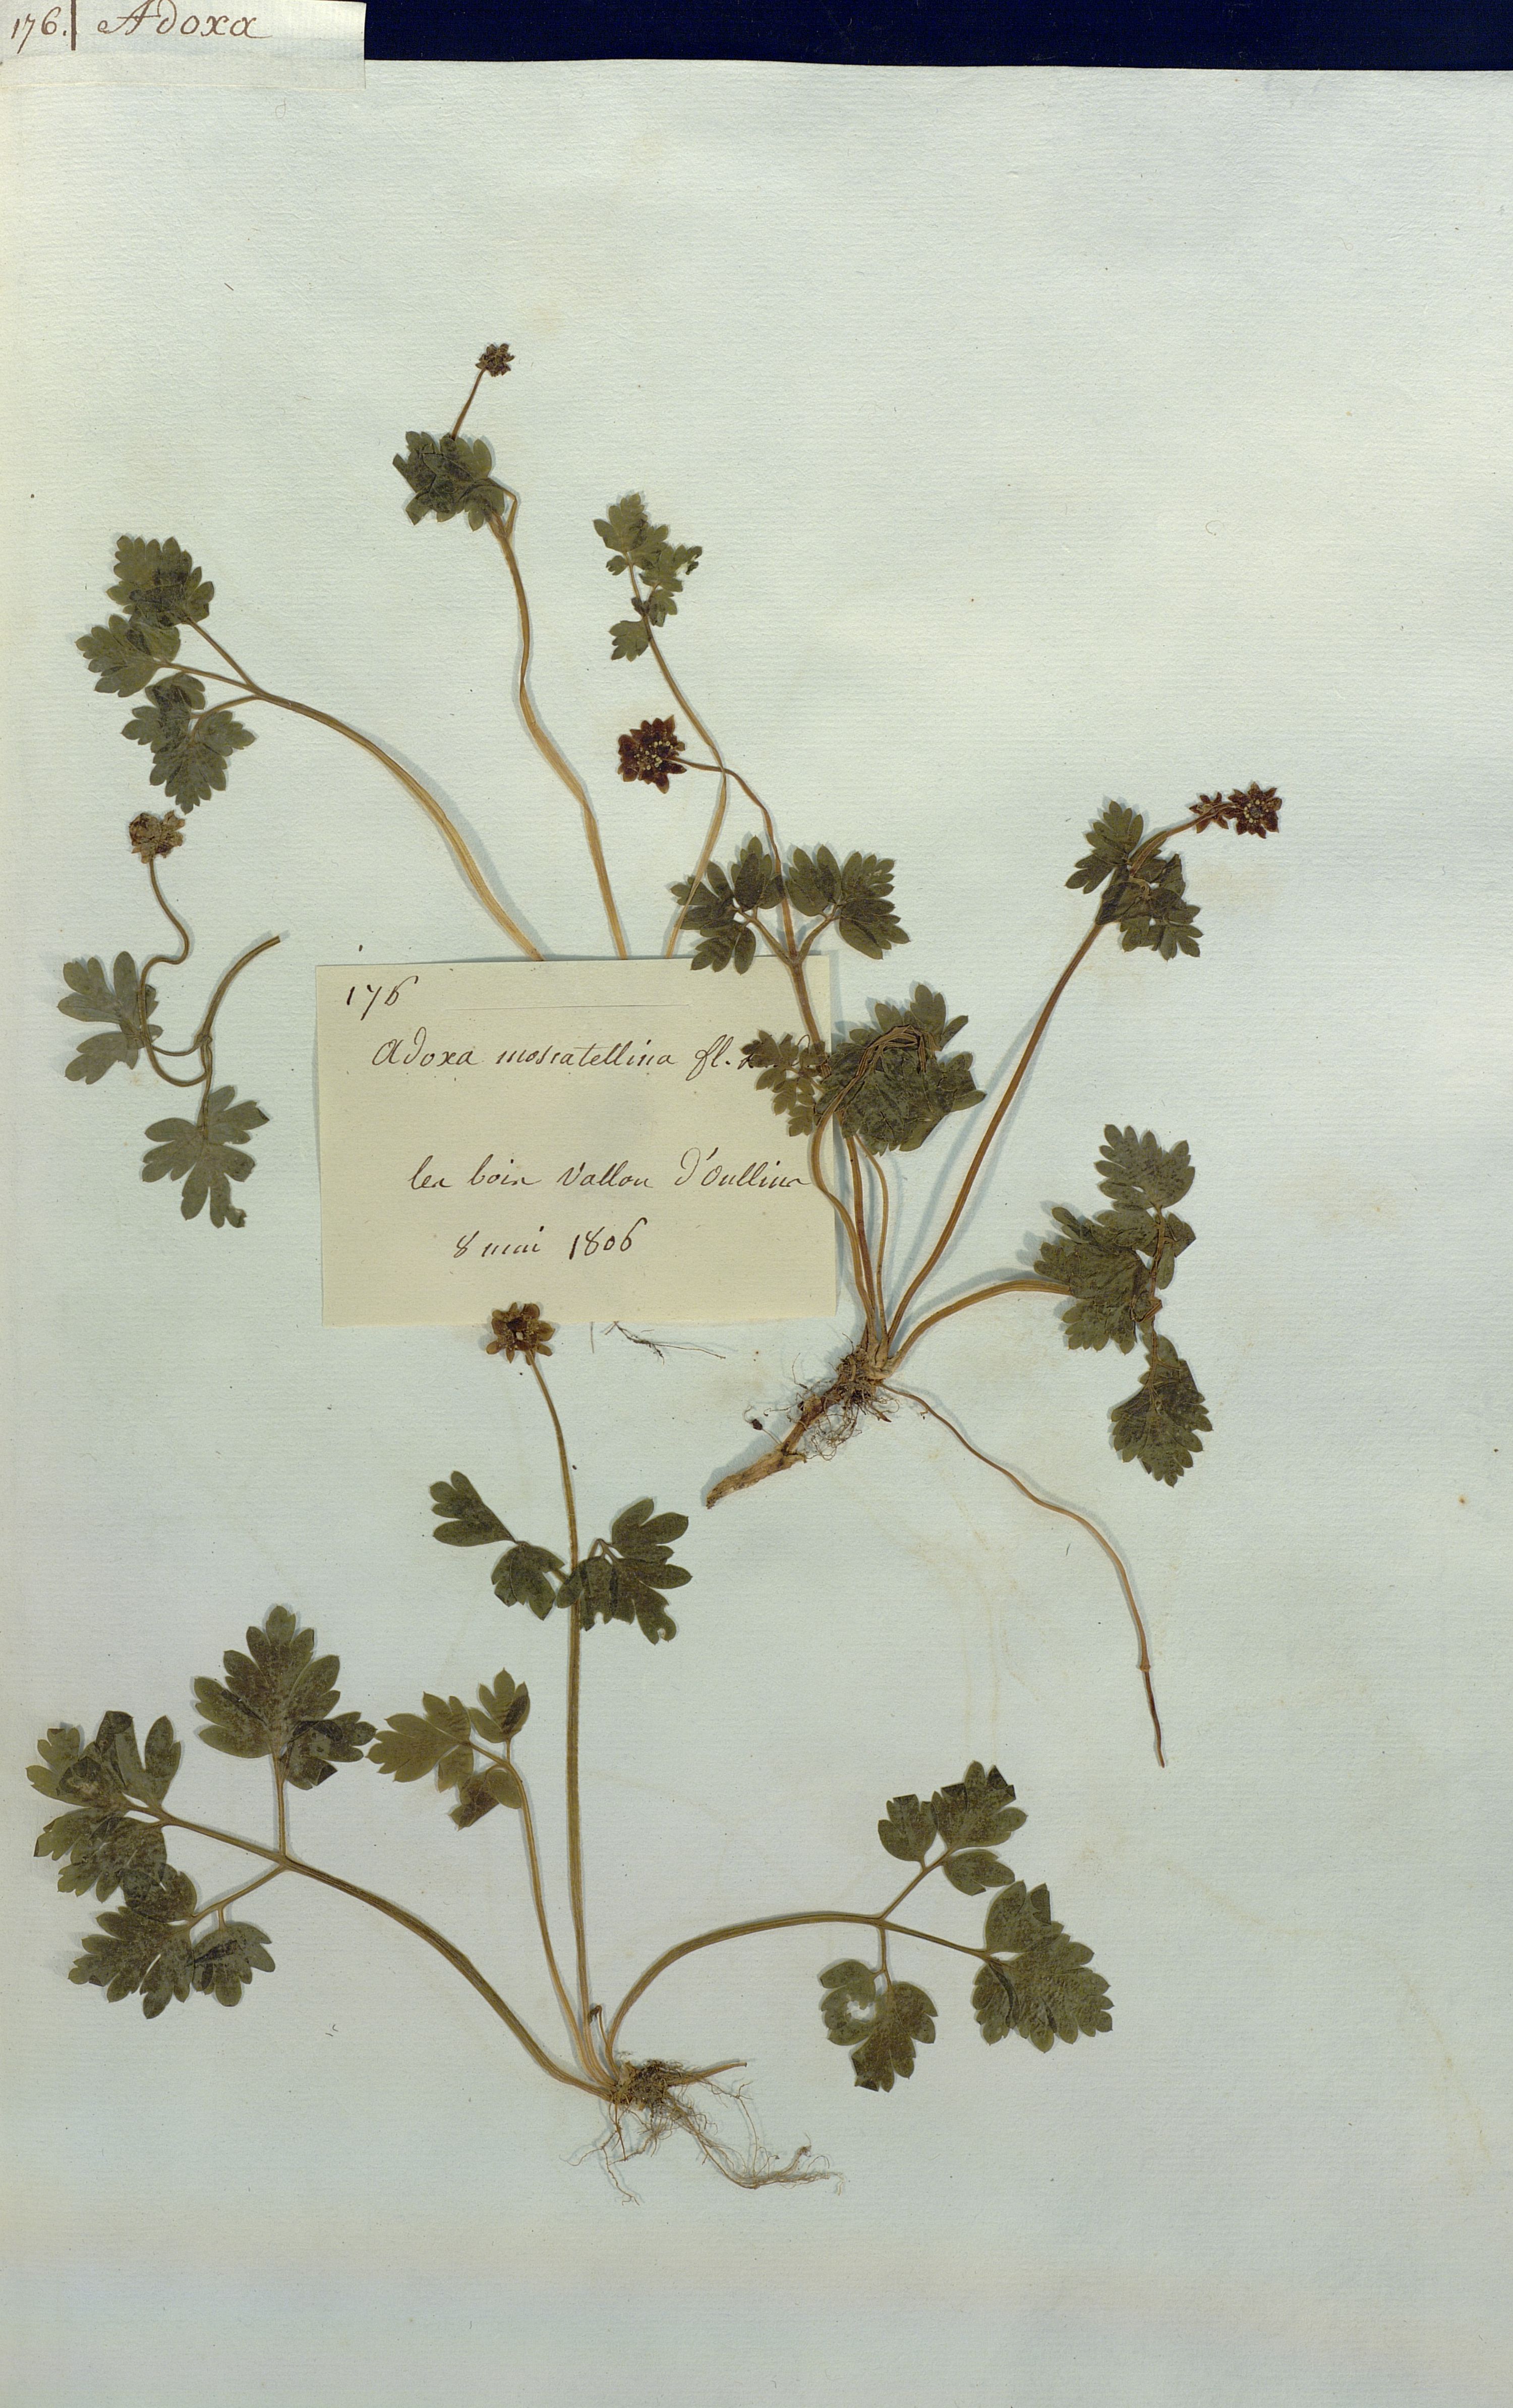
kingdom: Plantae
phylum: Tracheophyta
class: Magnoliopsida
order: Dipsacales
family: Viburnaceae
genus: Adoxa
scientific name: Adoxa moschatellina
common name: Moschatel
